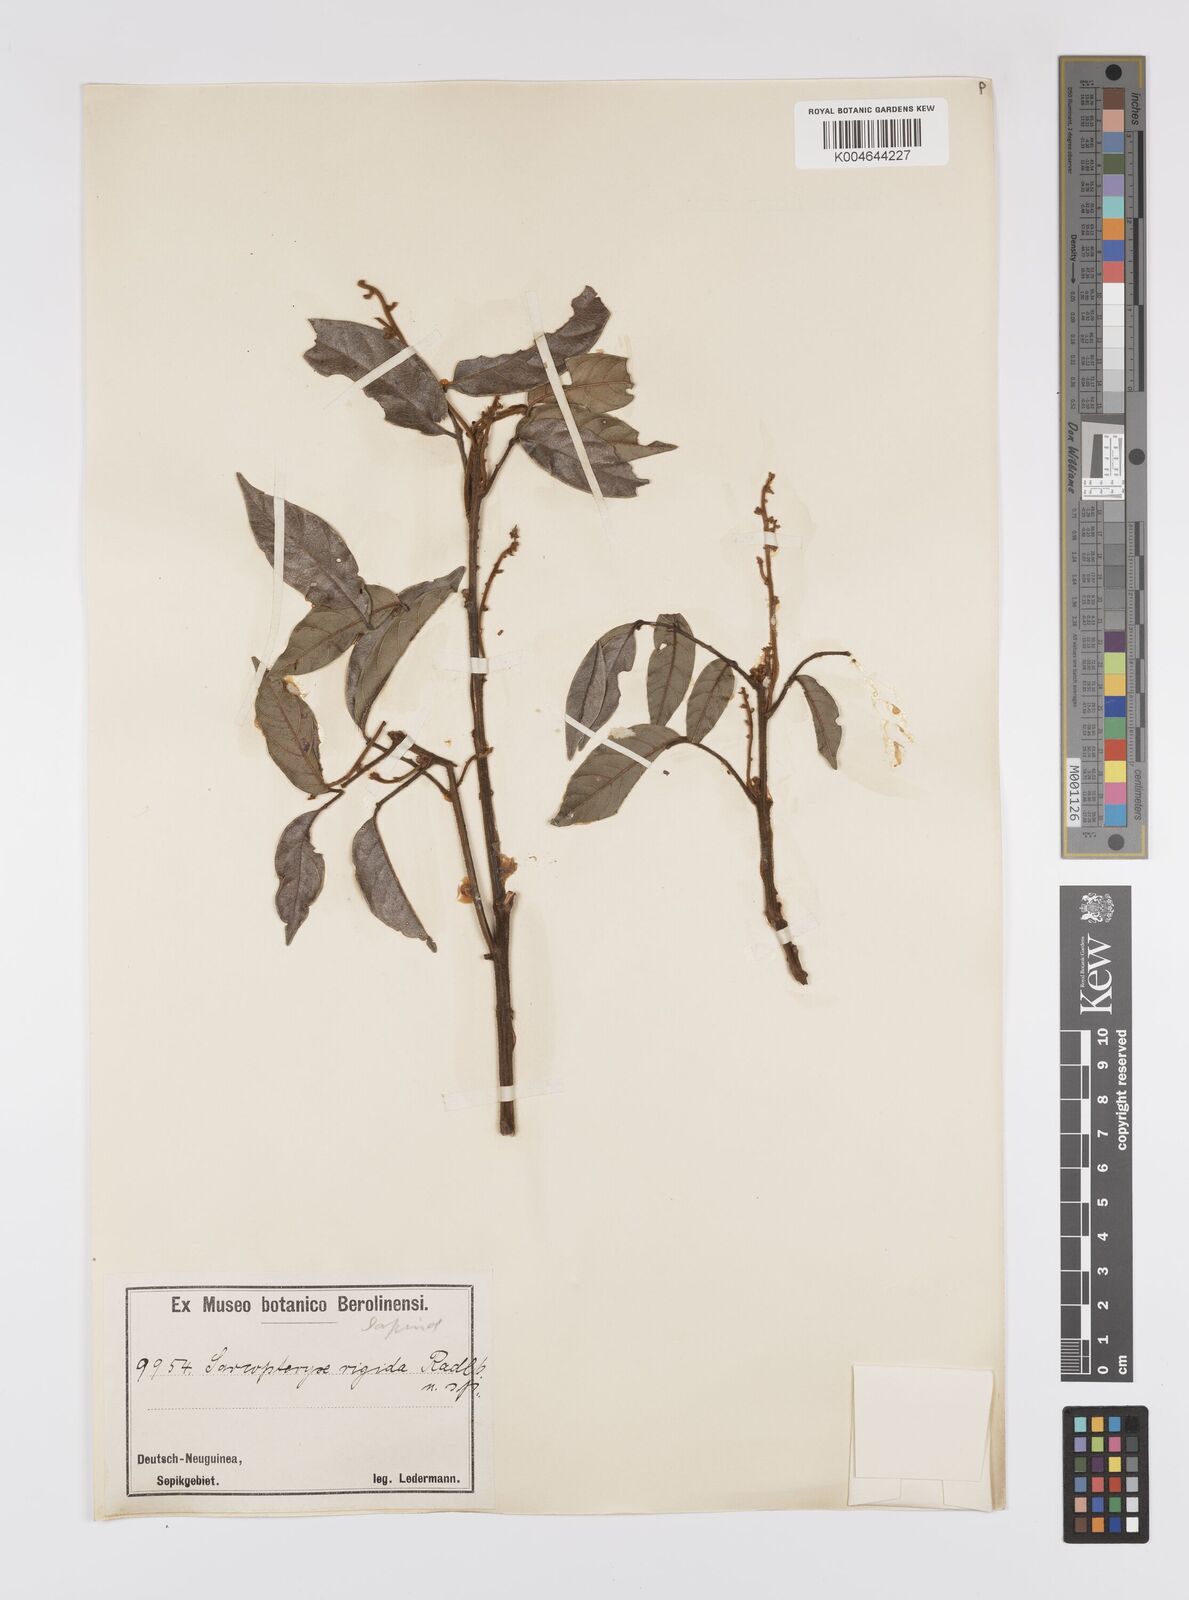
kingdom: Plantae
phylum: Tracheophyta
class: Magnoliopsida
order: Sapindales
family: Sapindaceae
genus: Sarcopteryx
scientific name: Sarcopteryx rigida
